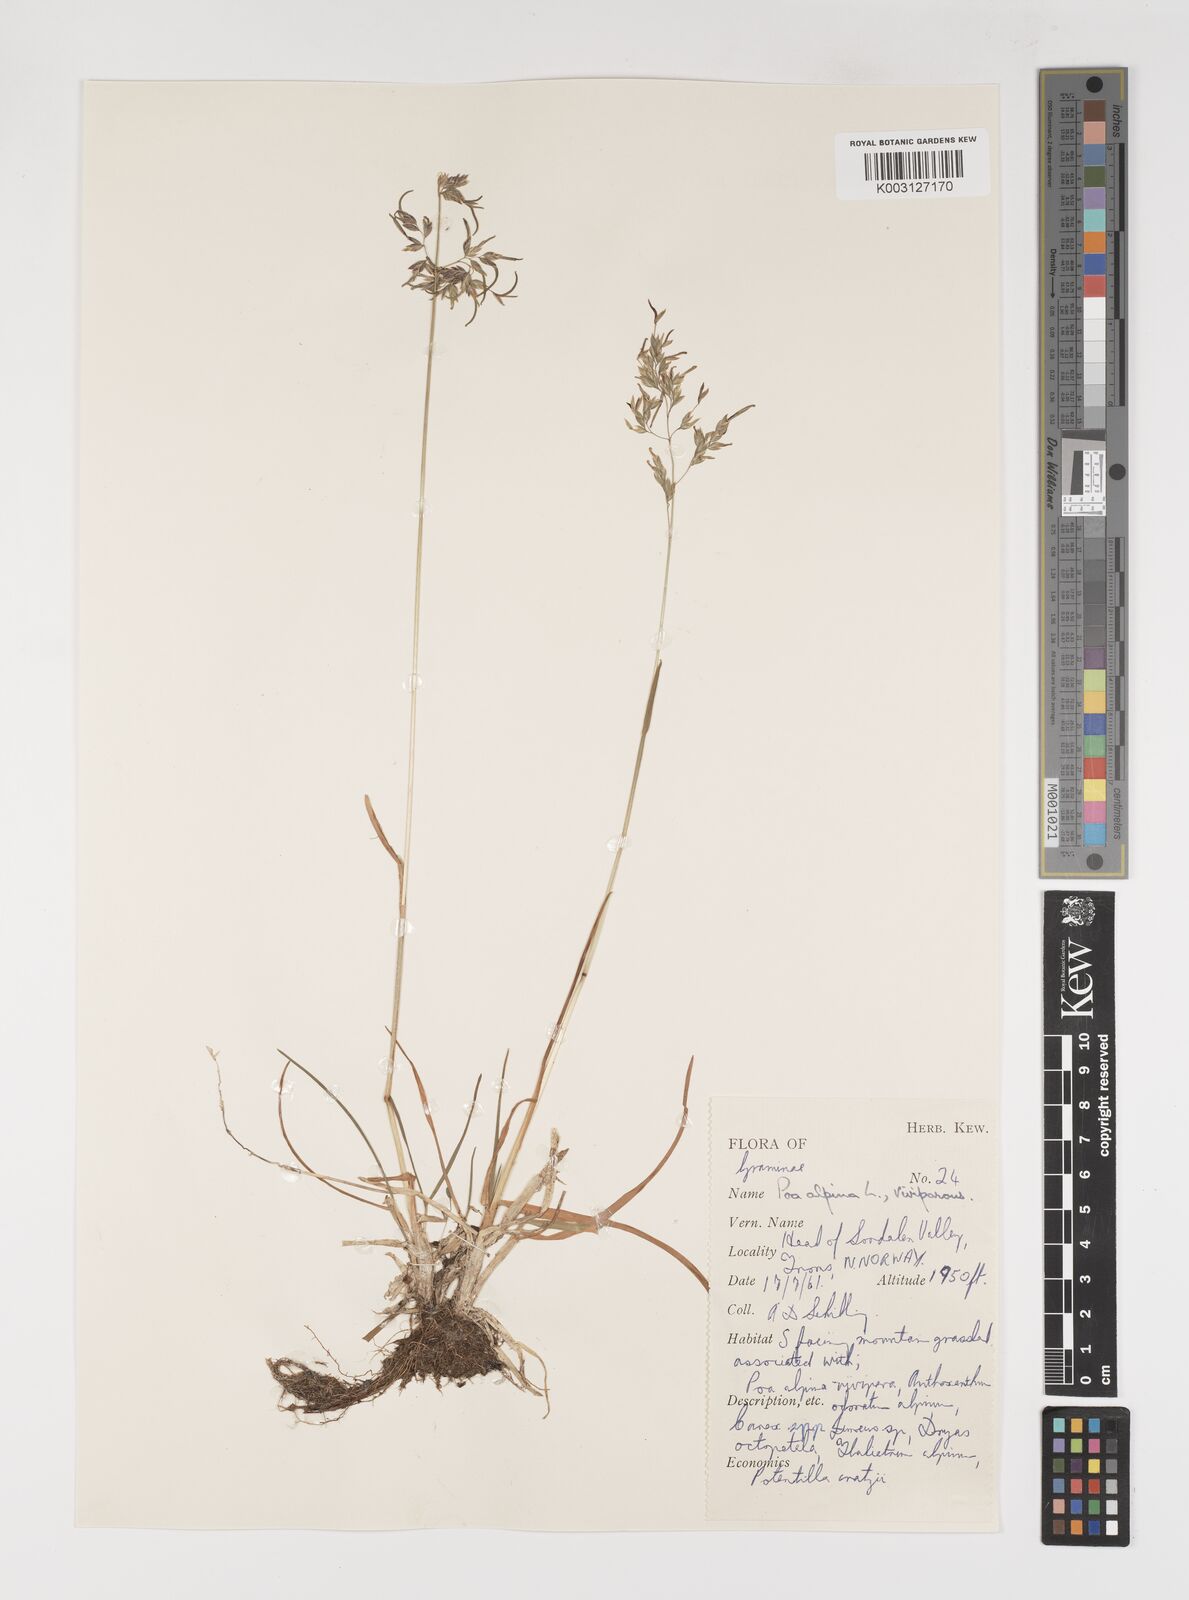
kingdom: Plantae
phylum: Tracheophyta
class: Liliopsida
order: Poales
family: Poaceae
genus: Poa
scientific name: Poa alpina
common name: Alpine bluegrass
